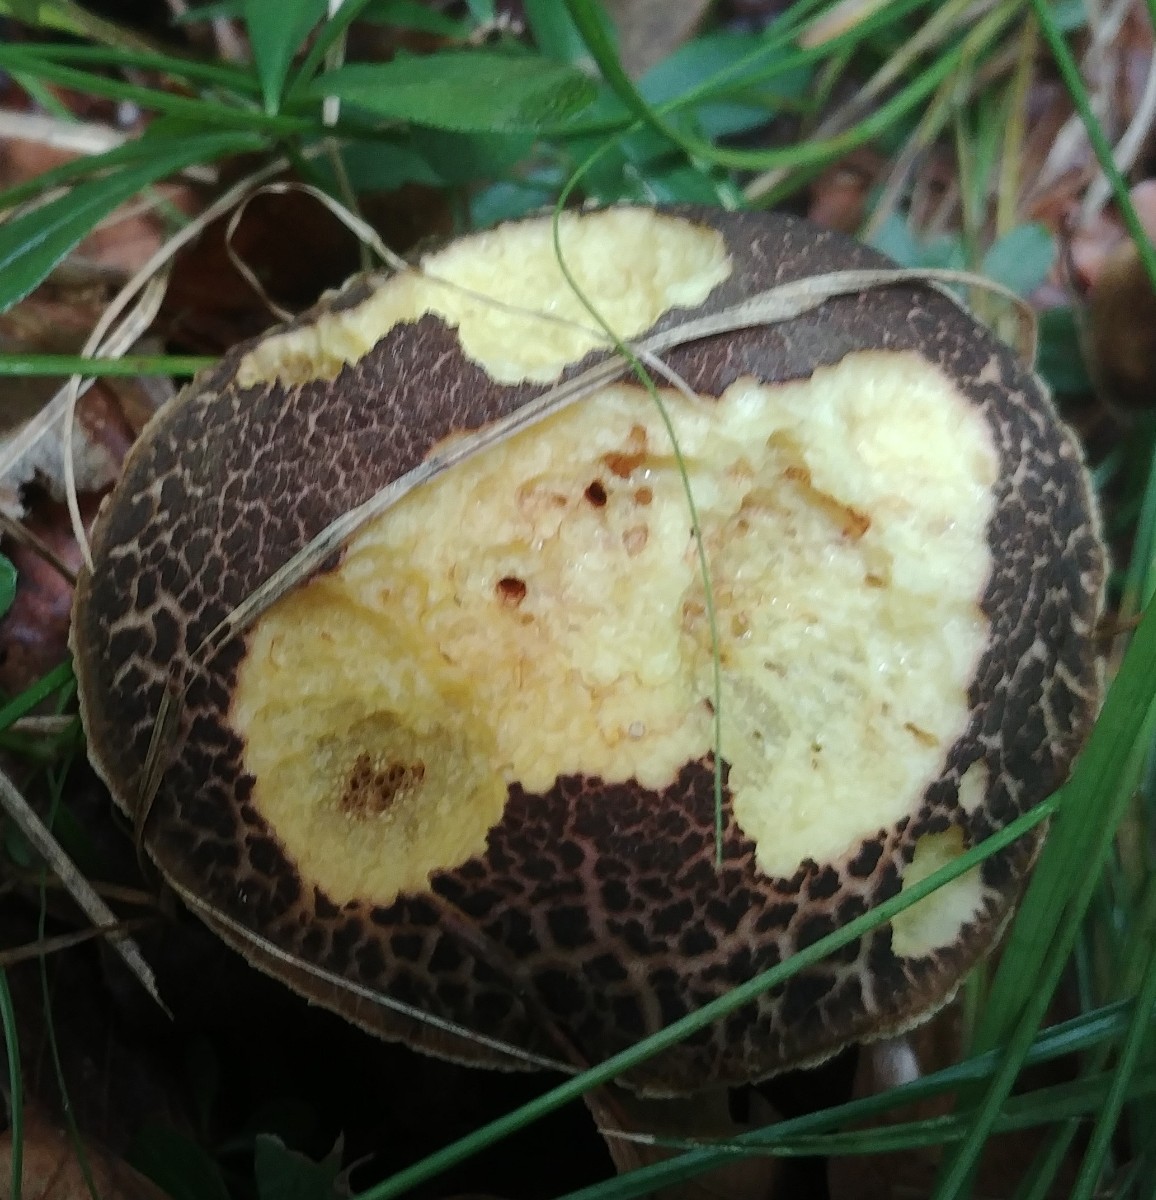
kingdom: Fungi
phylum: Basidiomycota
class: Agaricomycetes
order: Boletales
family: Boletaceae
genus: Xerocomellus
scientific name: Xerocomellus
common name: dværgrørhat
